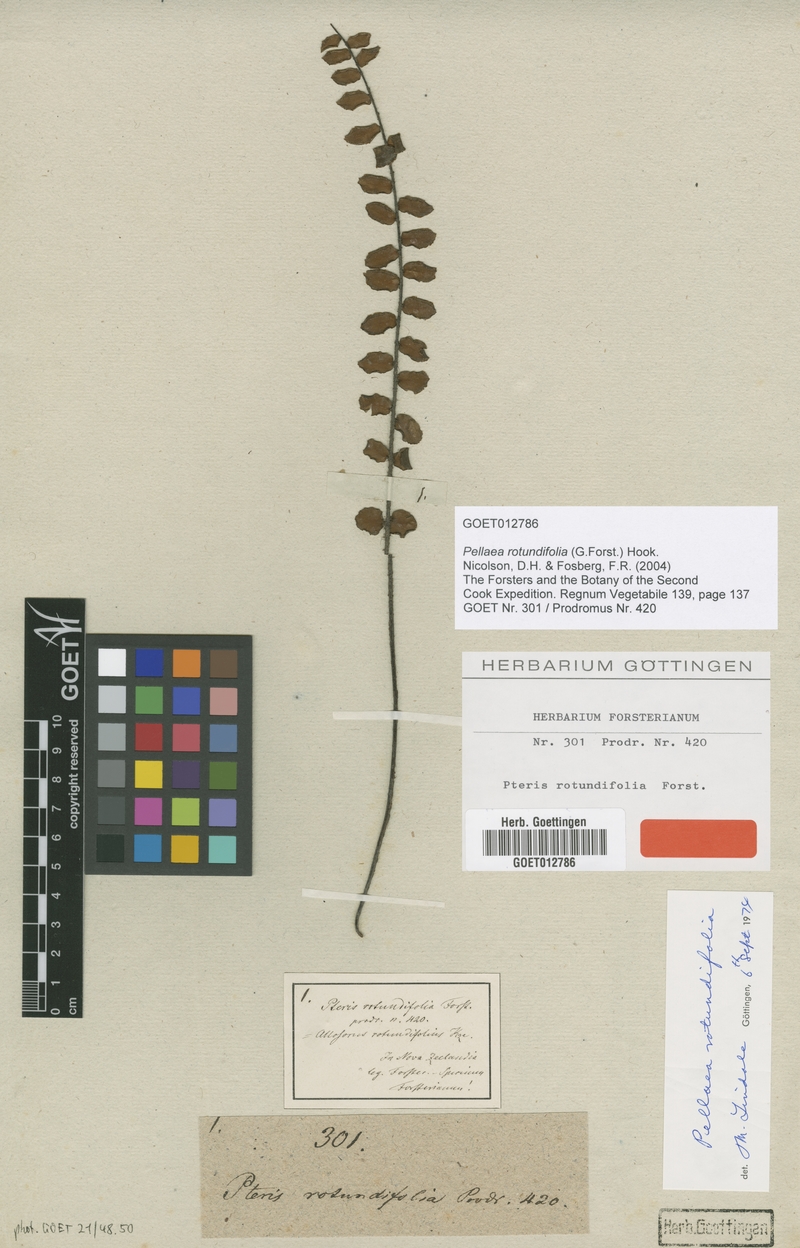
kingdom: Plantae
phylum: Tracheophyta
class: Polypodiopsida
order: Polypodiales
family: Pteridaceae
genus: Pellaea
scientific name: Pellaea rotundifolia
